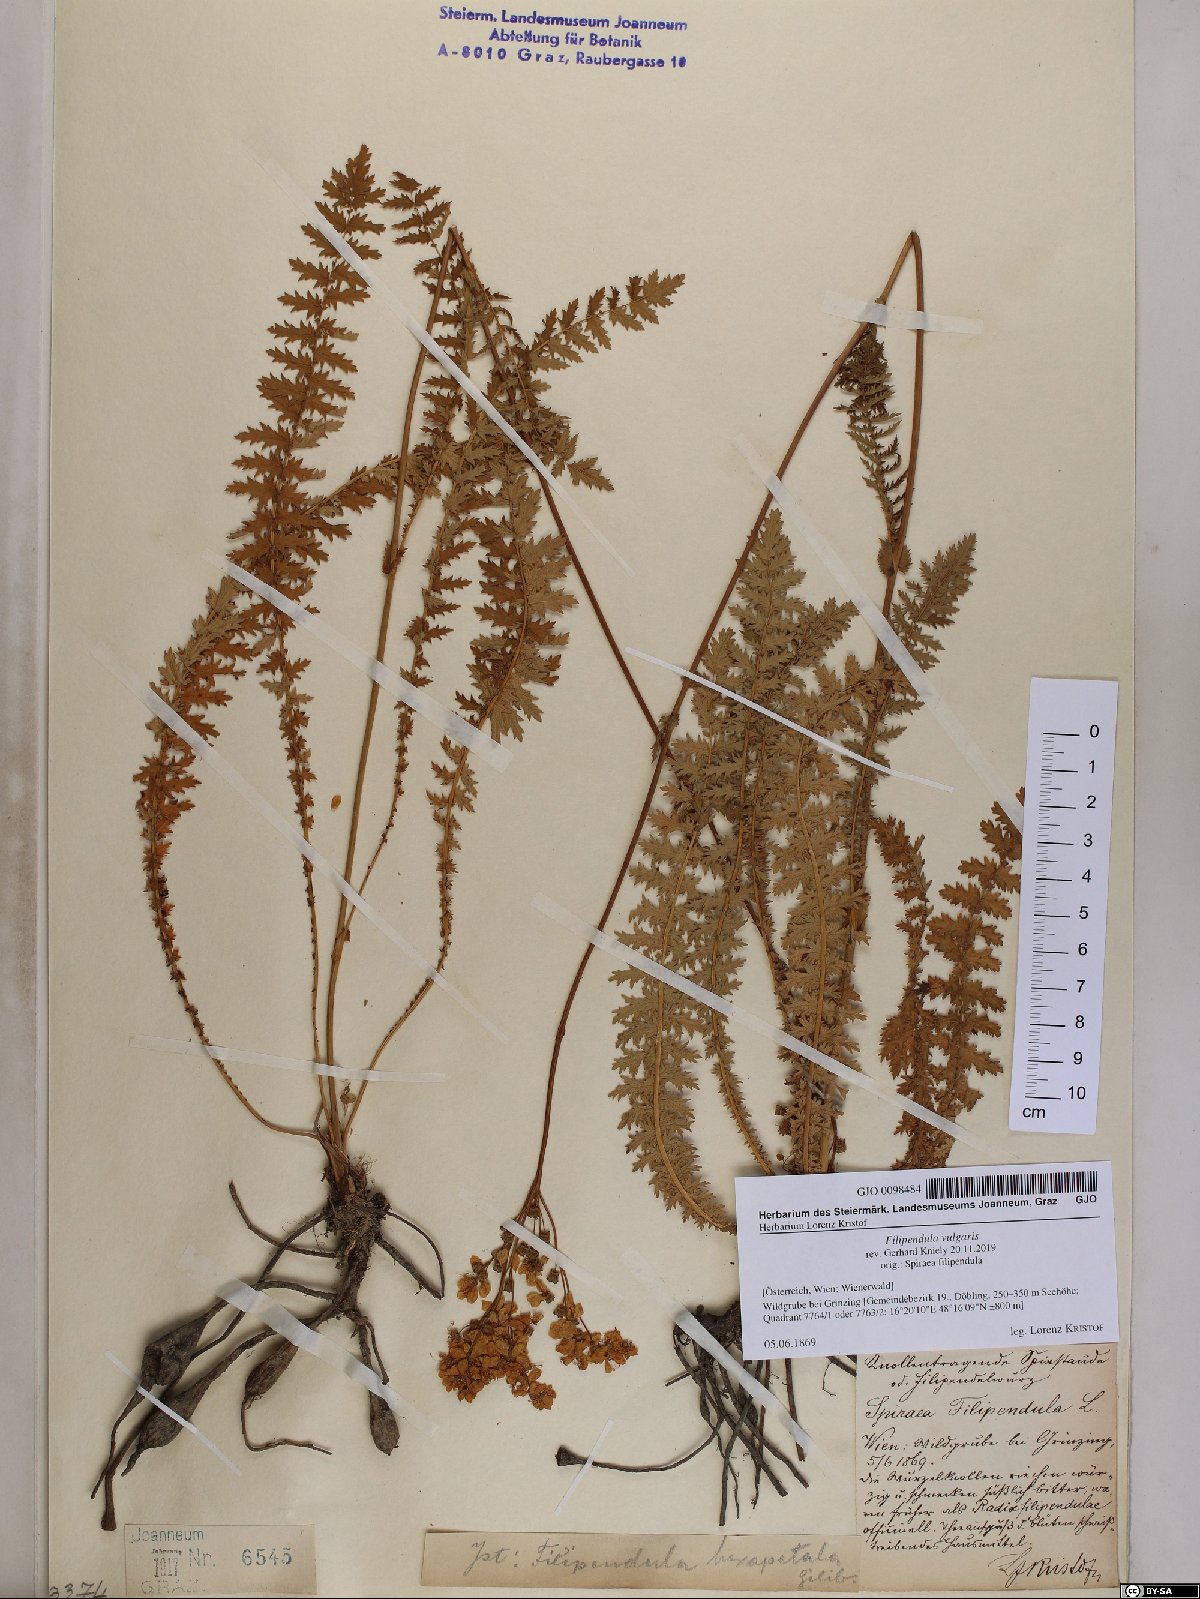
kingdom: Plantae
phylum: Tracheophyta
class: Magnoliopsida
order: Rosales
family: Rosaceae
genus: Filipendula
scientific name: Filipendula vulgaris
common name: Dropwort
